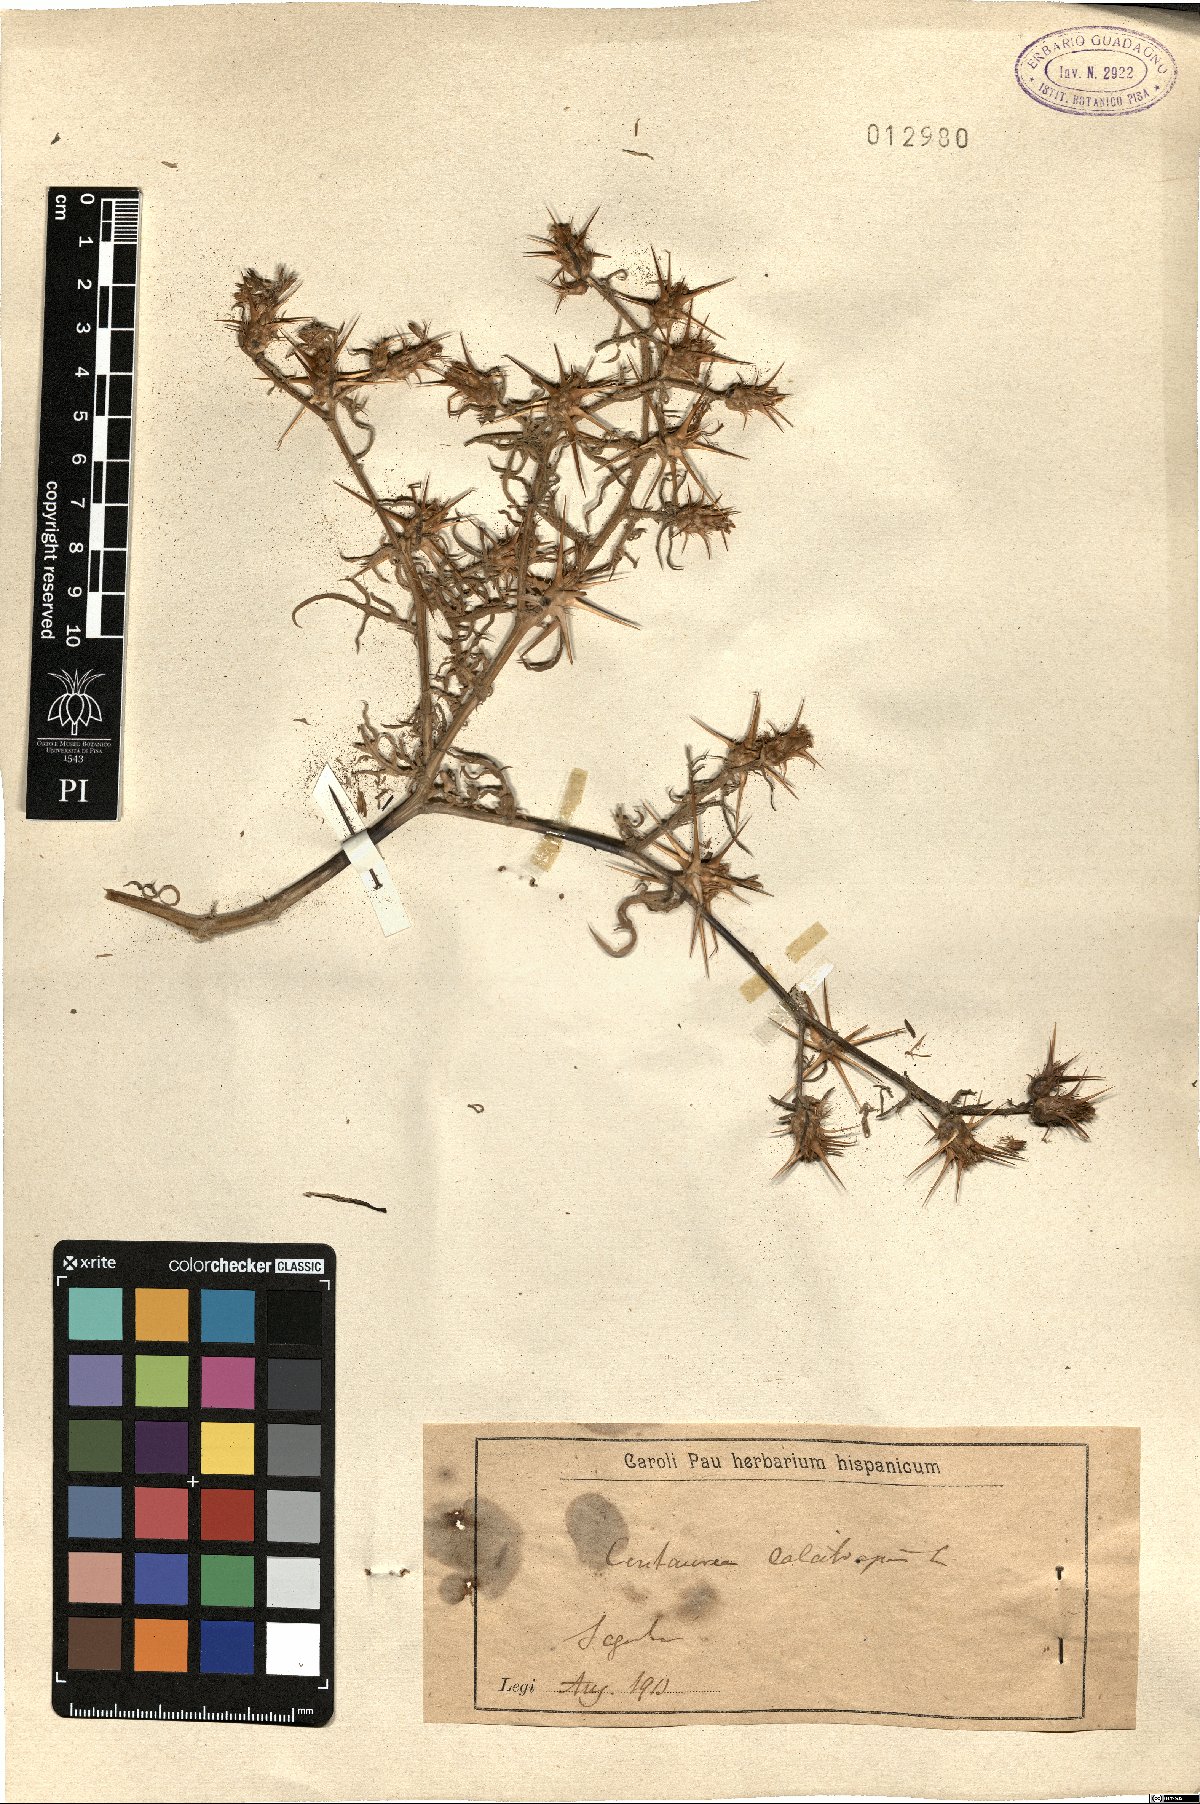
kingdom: Plantae
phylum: Tracheophyta
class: Magnoliopsida
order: Asterales
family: Asteraceae
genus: Centaurea
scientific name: Centaurea calcitrapa
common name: Red star-thistle
